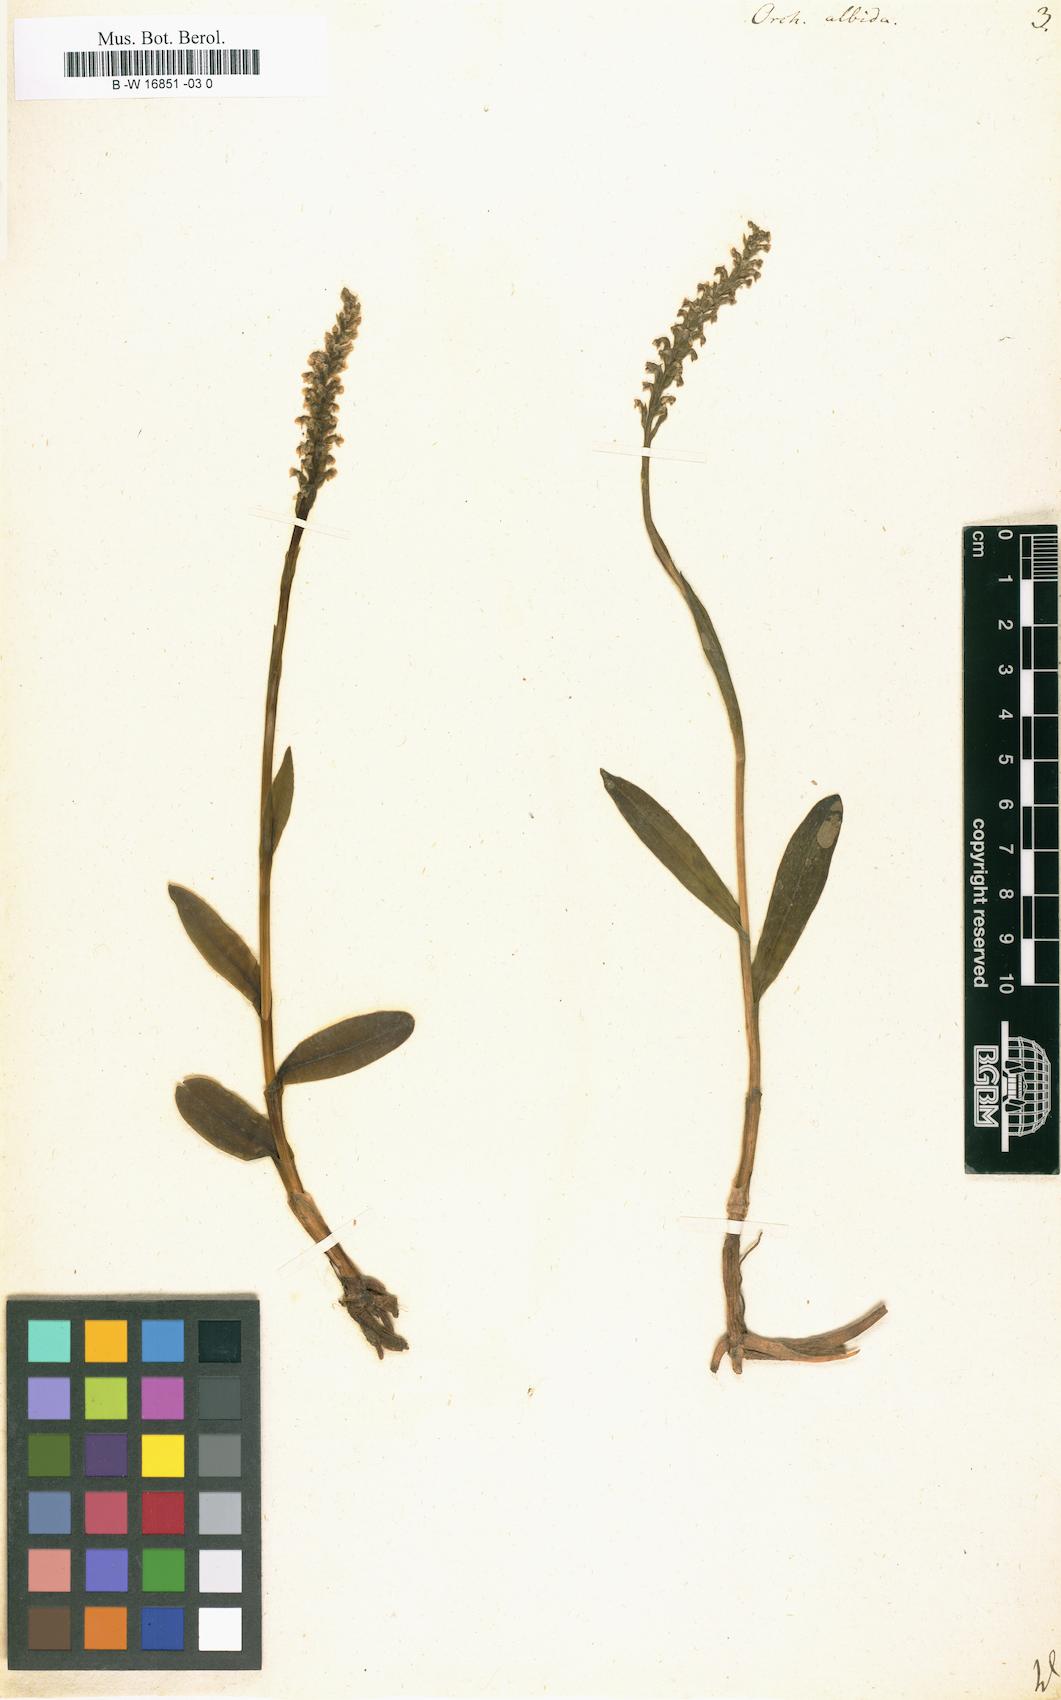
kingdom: Plantae
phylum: Tracheophyta
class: Liliopsida
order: Asparagales
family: Orchidaceae
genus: Pseudorchis
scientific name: Pseudorchis albida
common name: Small-white orchid
